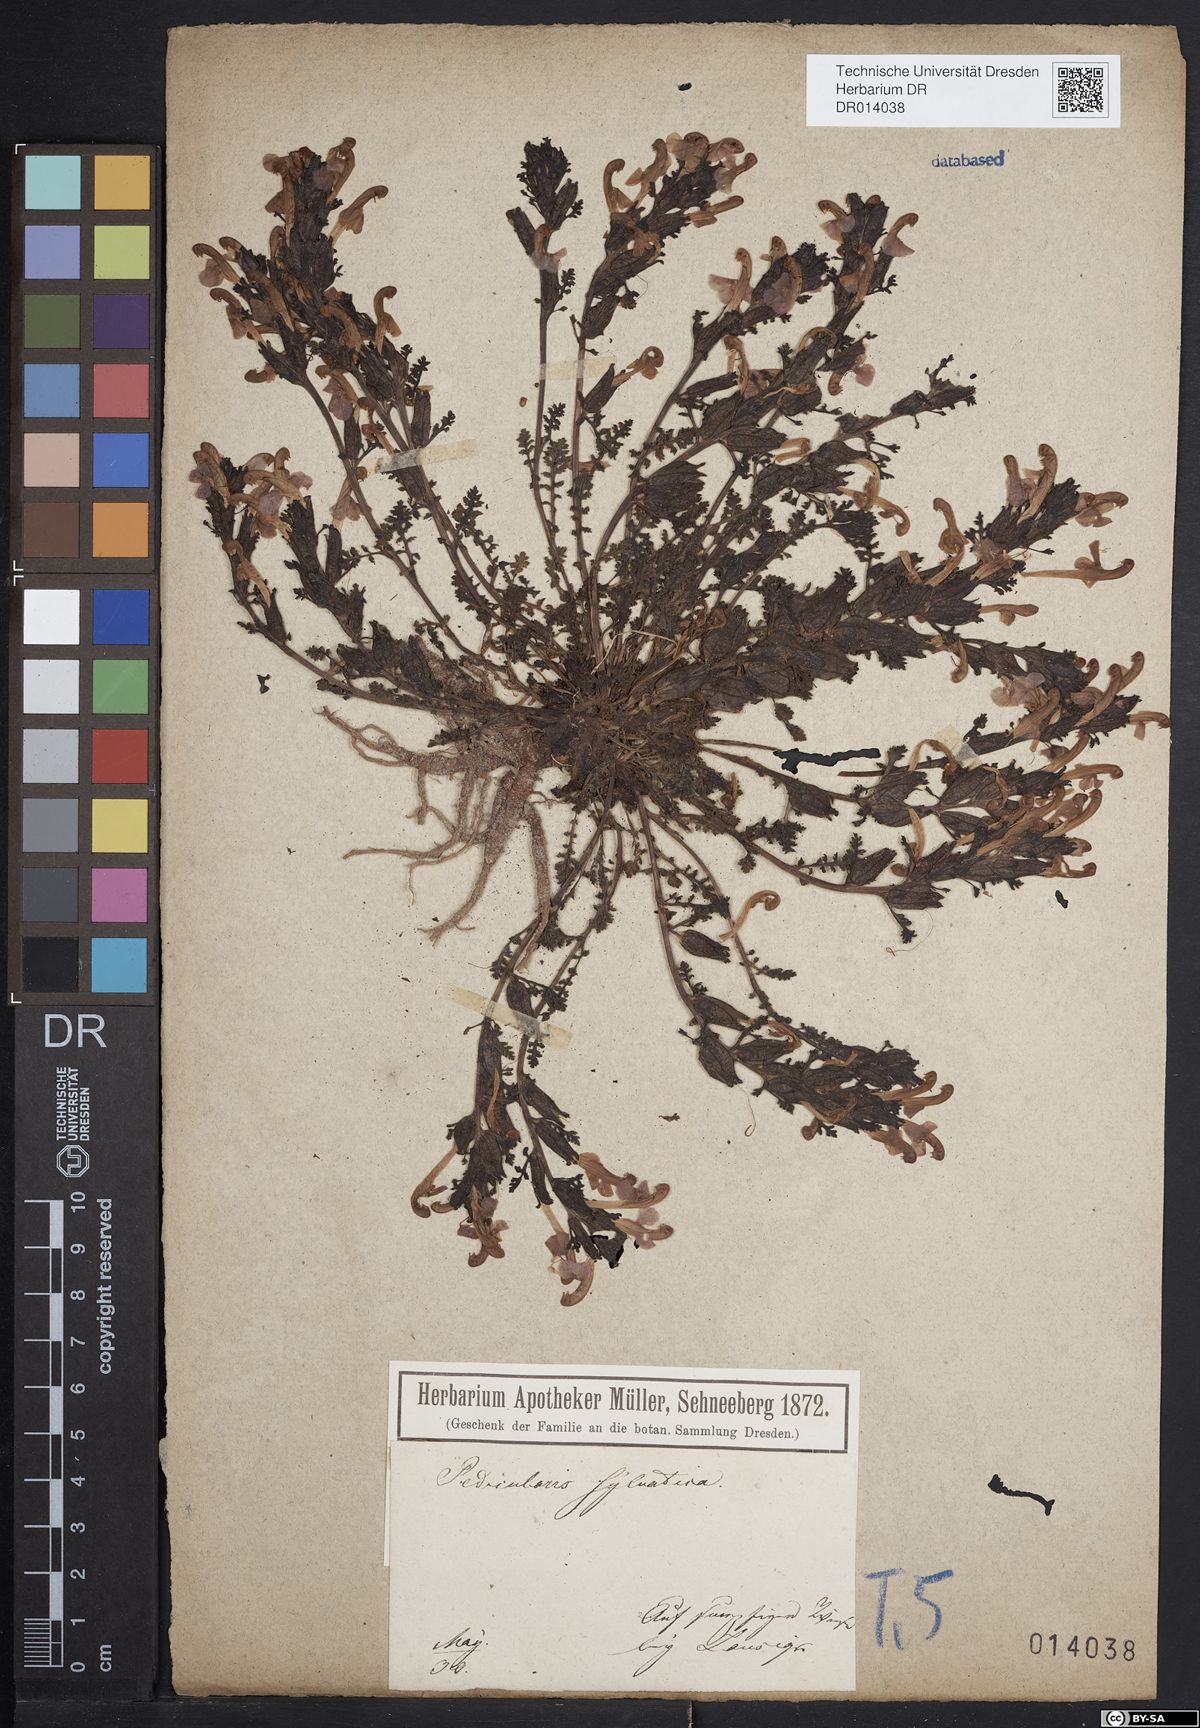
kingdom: Plantae
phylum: Tracheophyta
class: Magnoliopsida
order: Lamiales
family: Orobanchaceae
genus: Pedicularis
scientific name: Pedicularis sylvatica
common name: Lousewort
